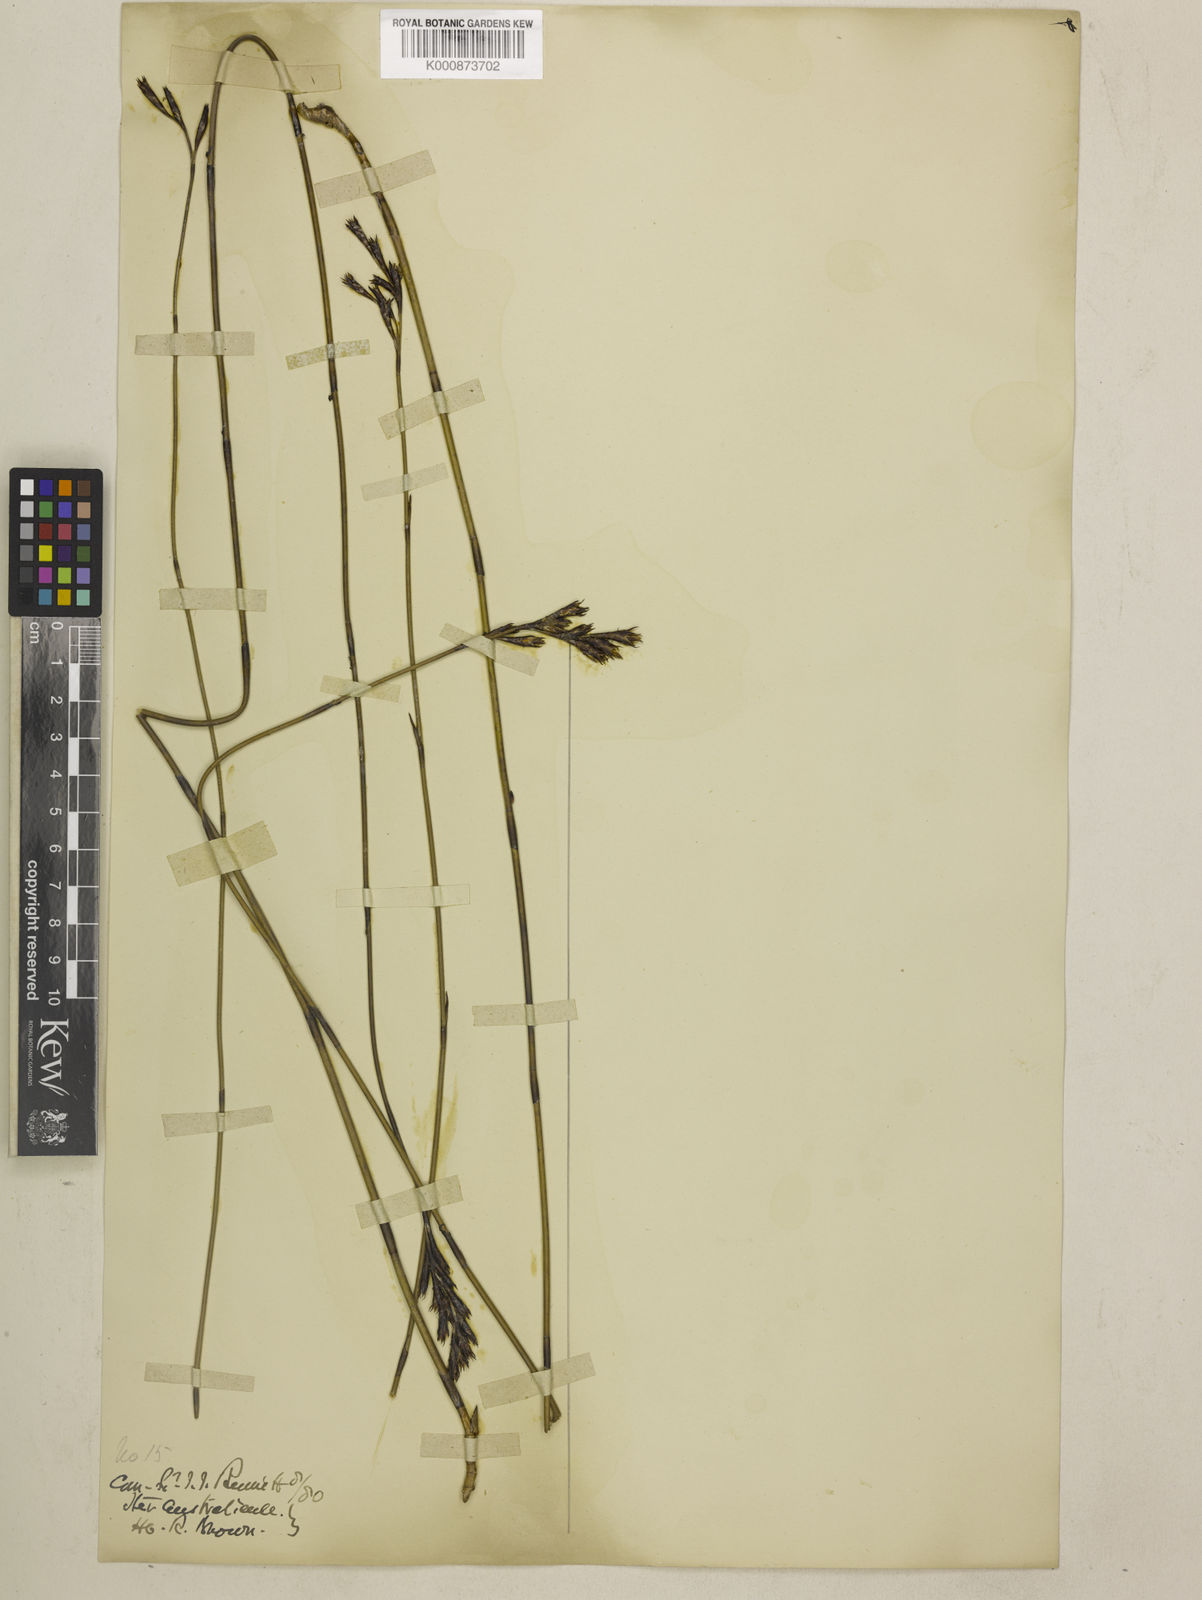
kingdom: Plantae
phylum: Tracheophyta
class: Liliopsida
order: Poales
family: Restionaceae
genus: Leptocarpus
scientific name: Leptocarpus tenax
